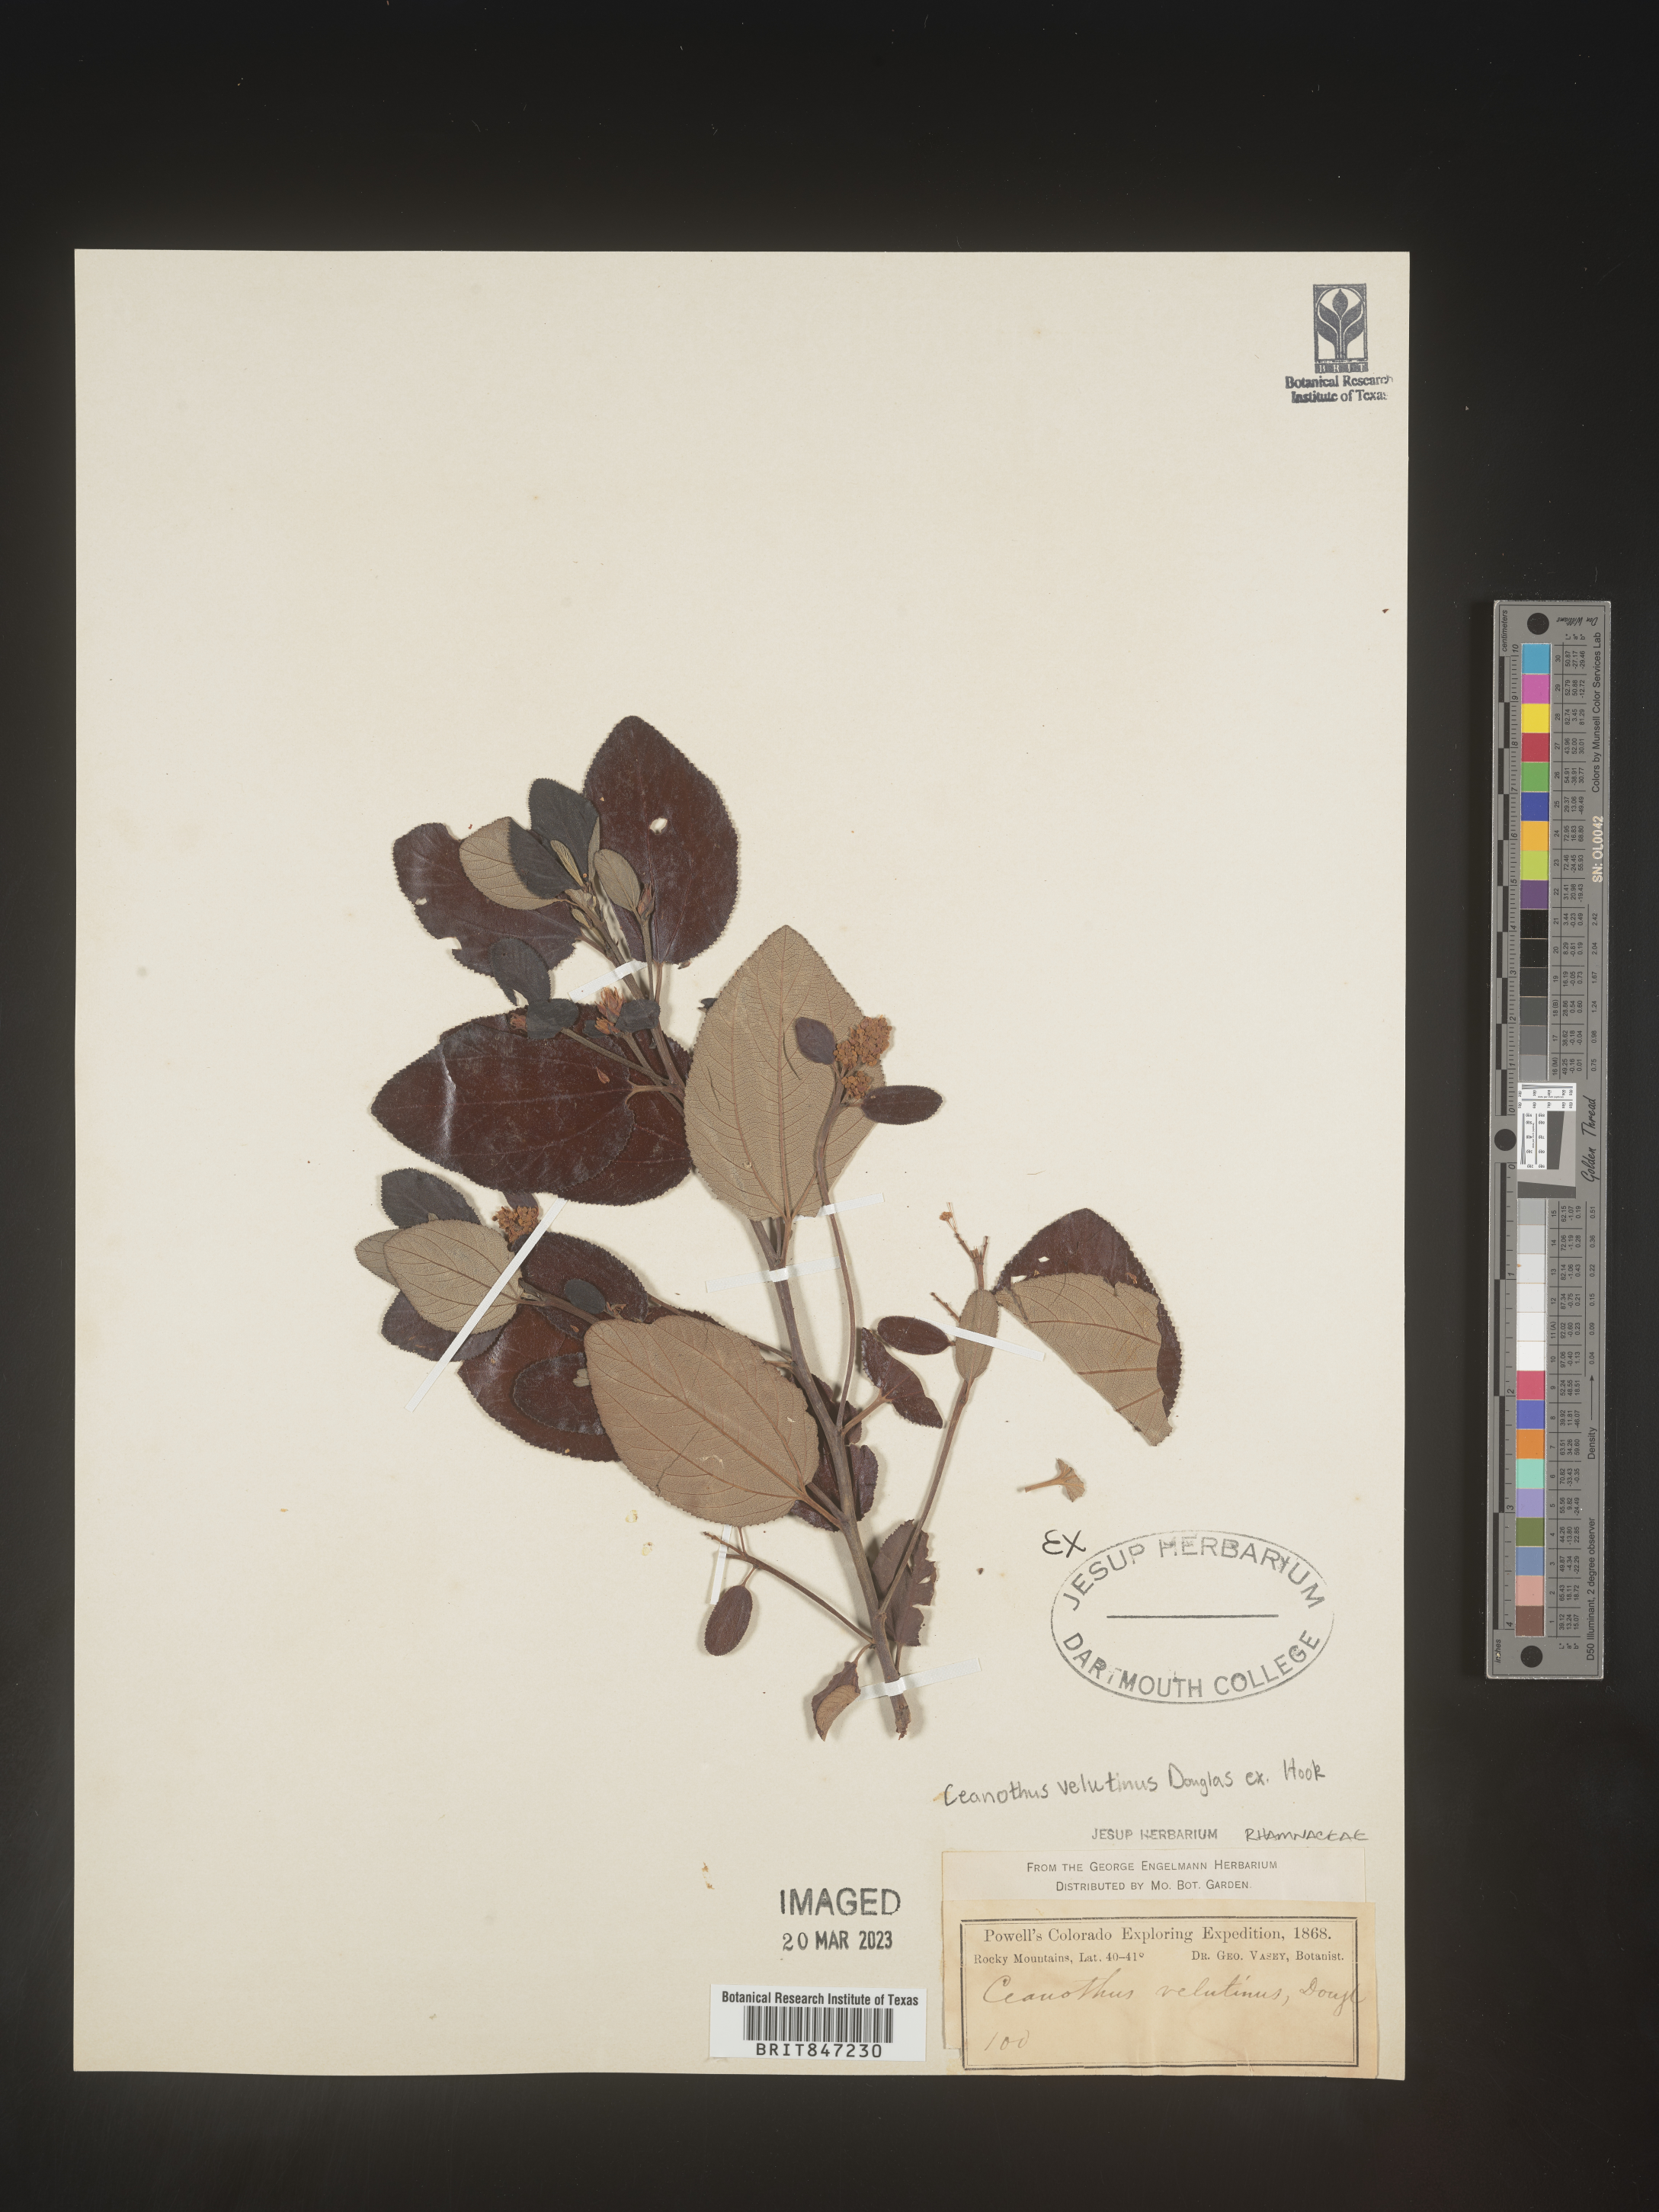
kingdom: Plantae
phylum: Tracheophyta
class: Magnoliopsida
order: Rosales
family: Rhamnaceae
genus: Ceanothus
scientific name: Ceanothus velutinus
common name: Snowbrush
